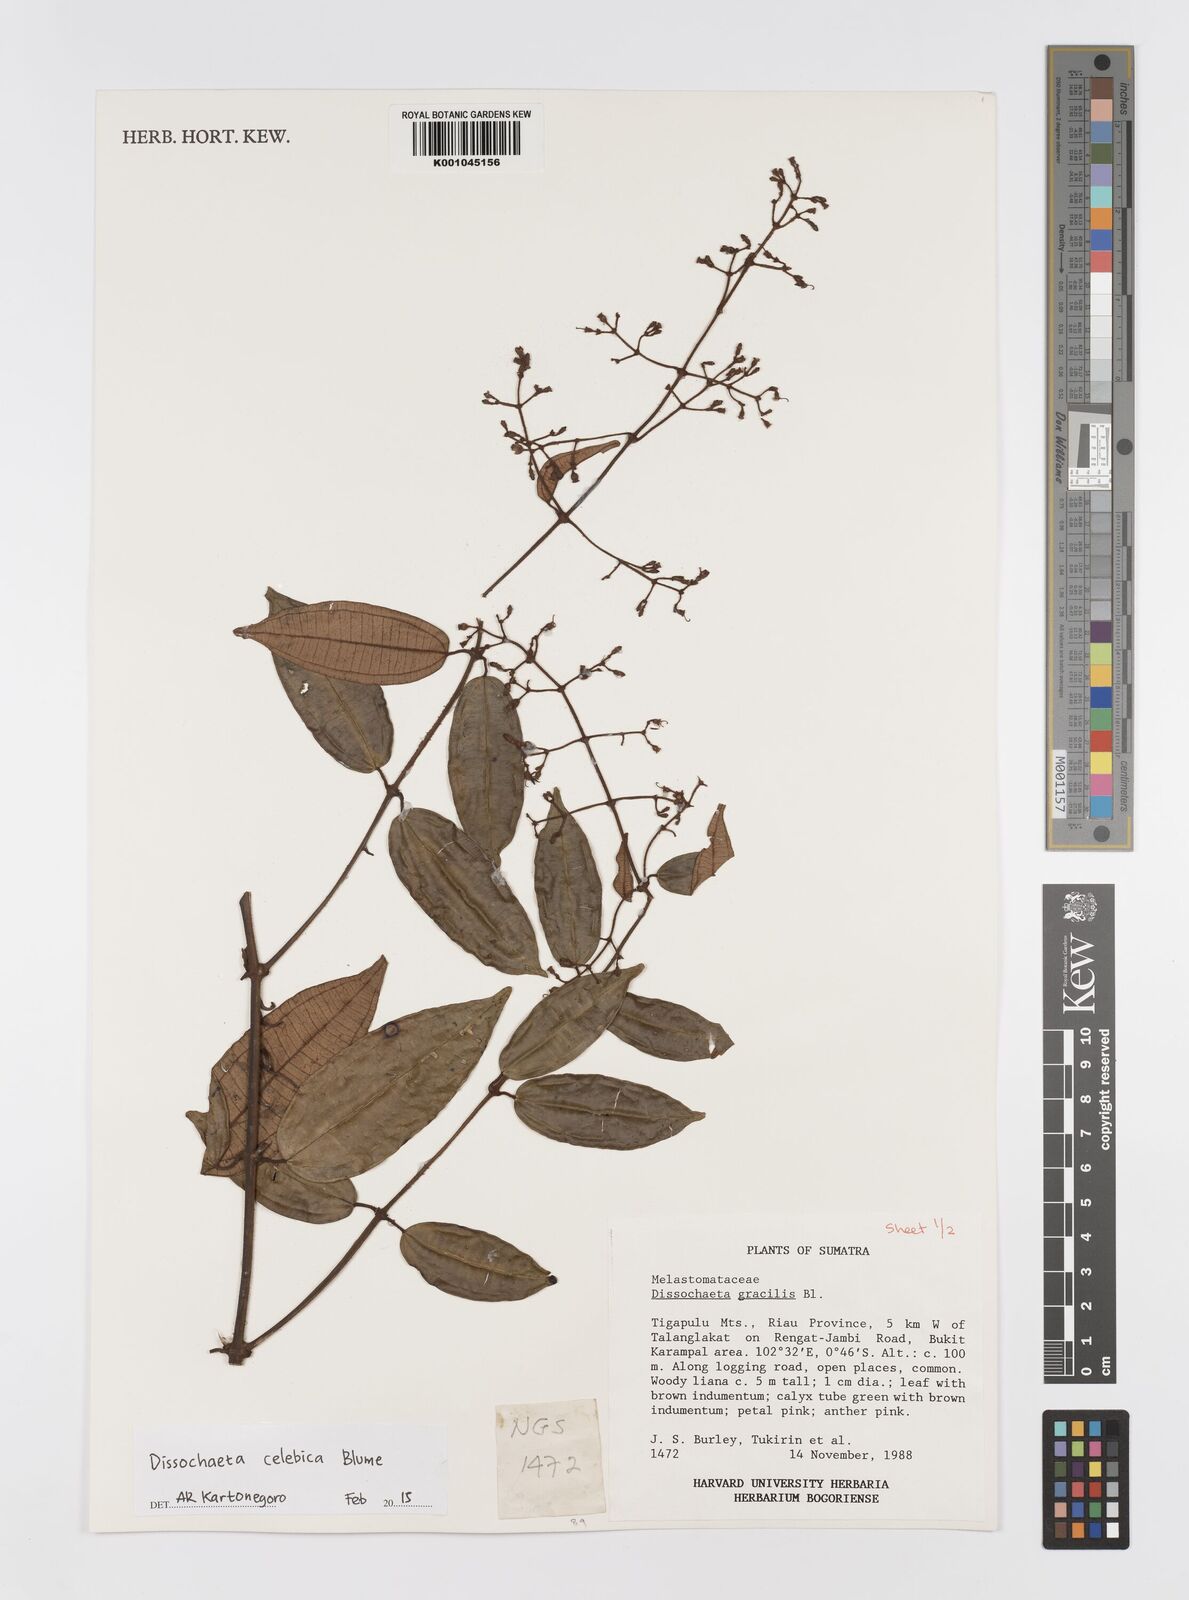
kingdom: Plantae
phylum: Tracheophyta
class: Magnoliopsida
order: Myrtales
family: Melastomataceae
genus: Dissochaeta
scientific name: Dissochaeta celebica
